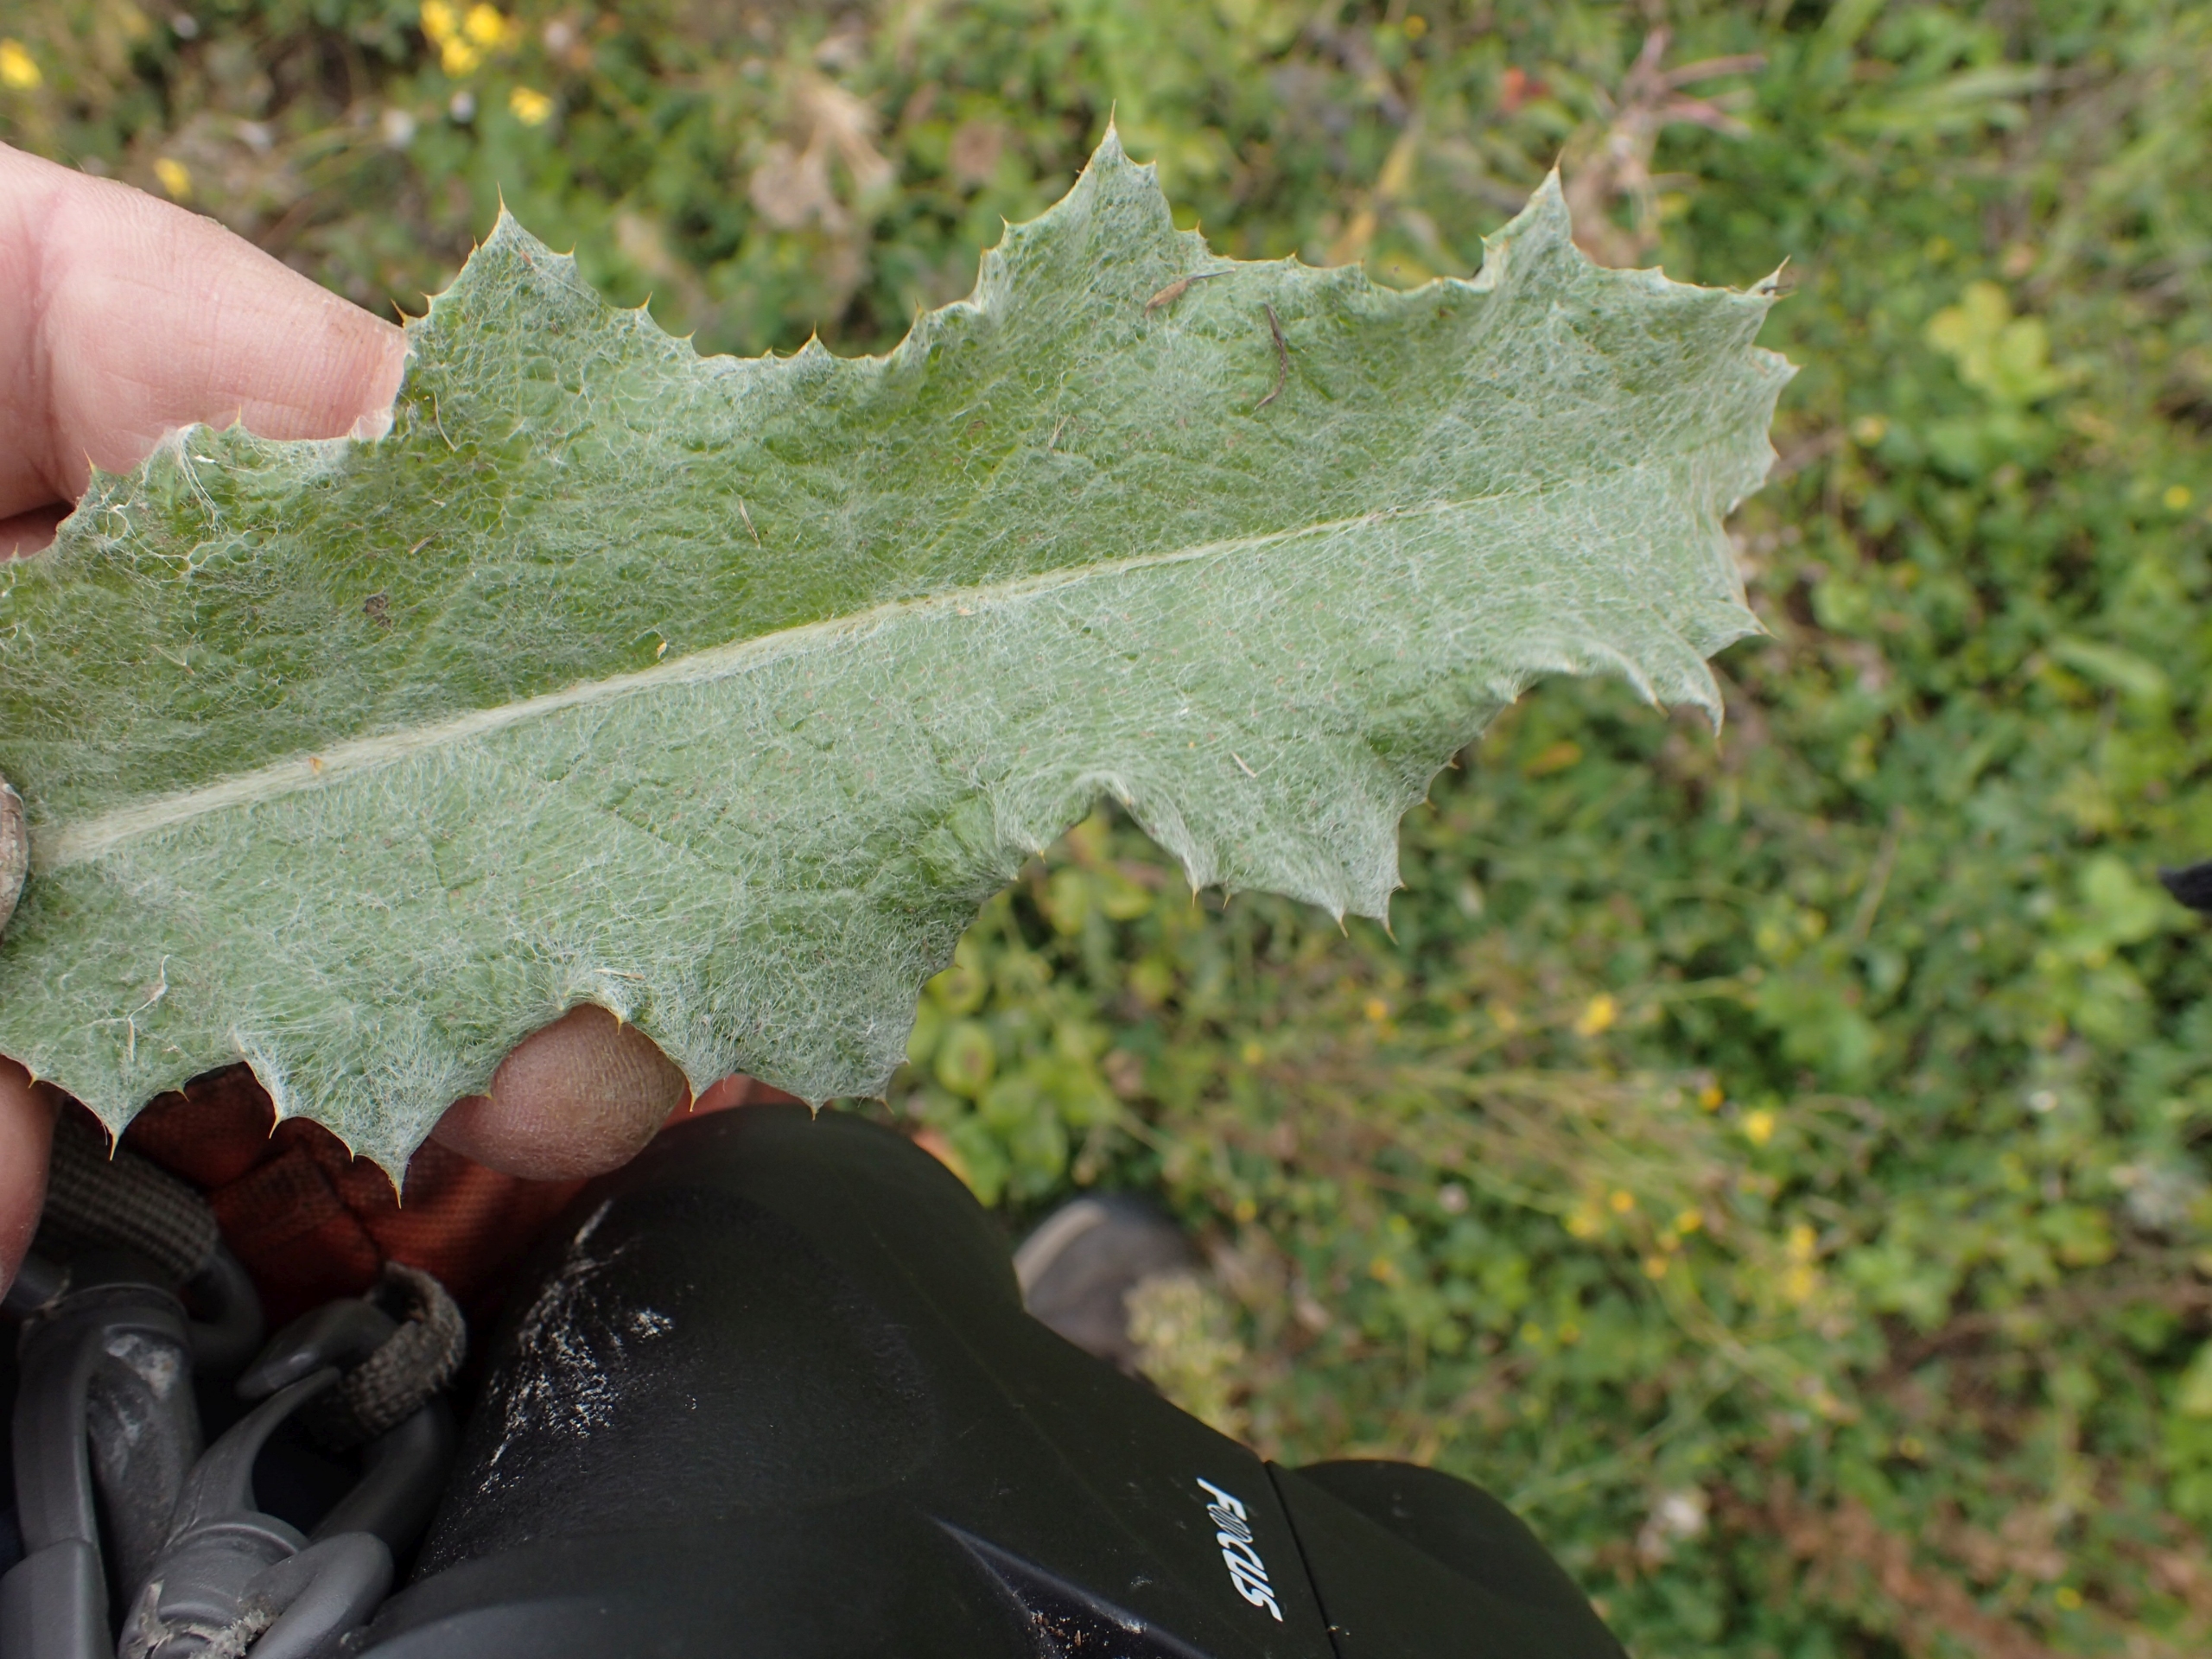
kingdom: Plantae
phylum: Tracheophyta
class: Magnoliopsida
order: Asterales
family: Asteraceae
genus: Onopordum
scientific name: Onopordum acanthium
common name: Æselfoder
